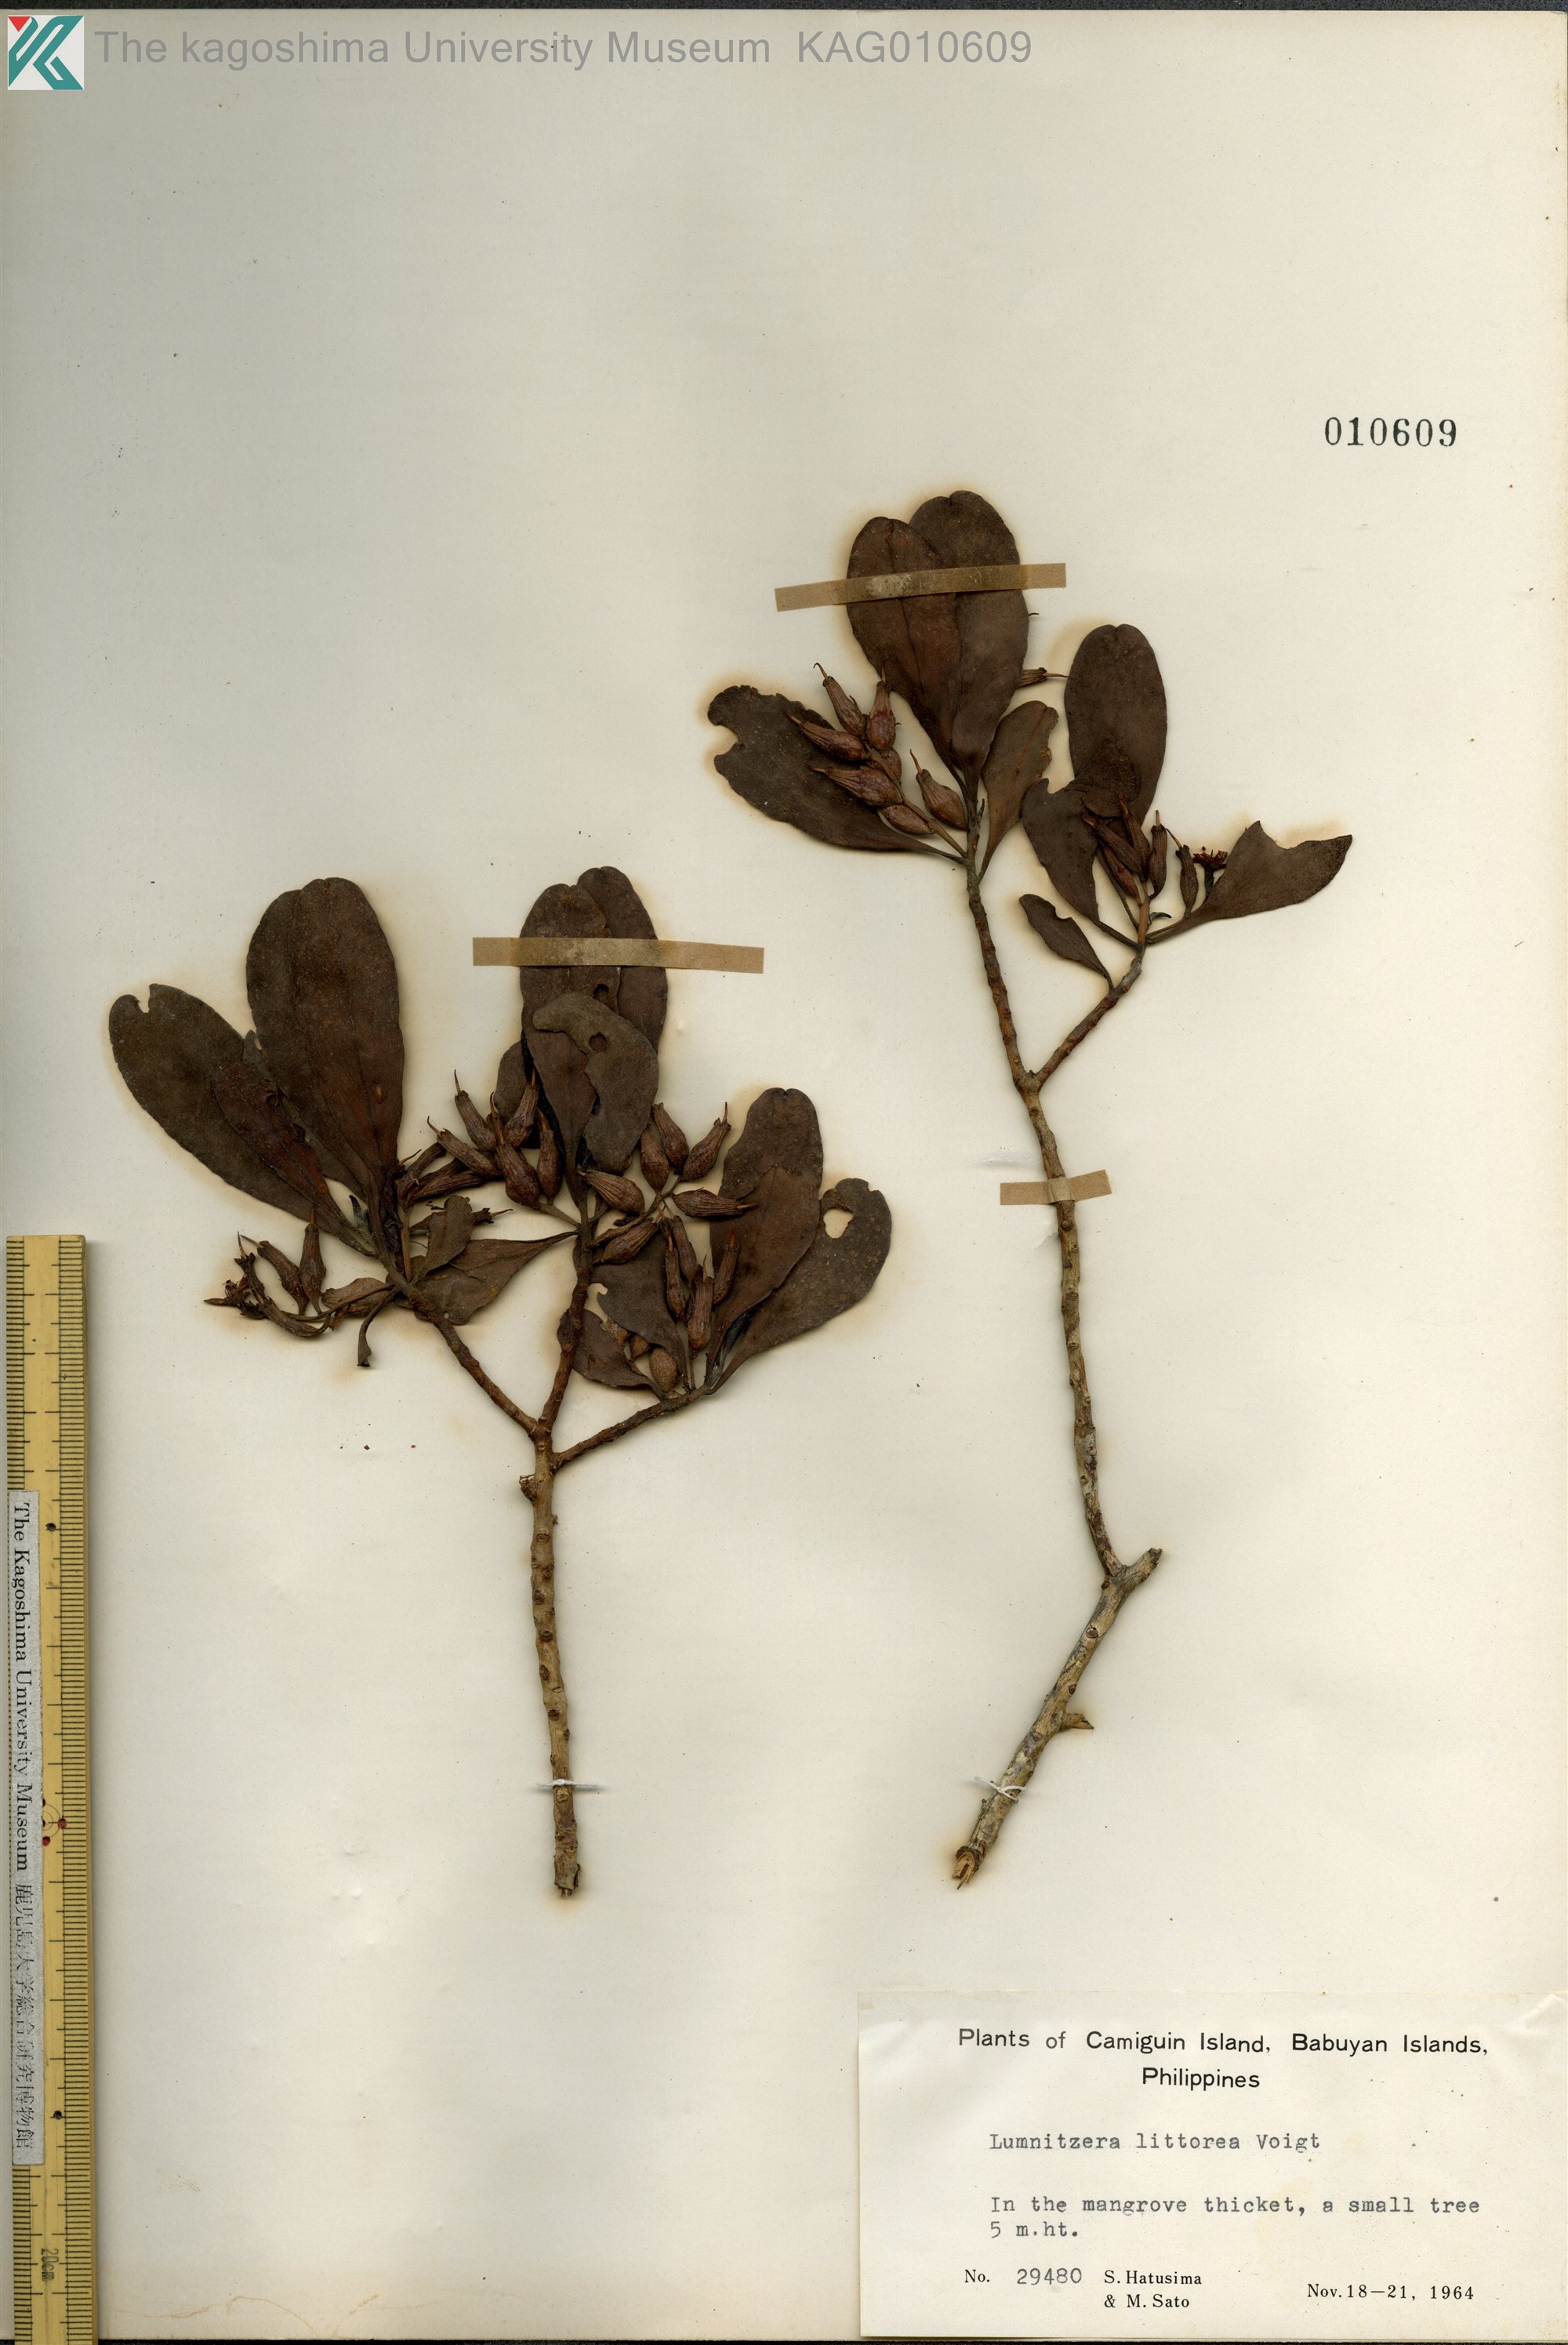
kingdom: Plantae
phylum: Tracheophyta
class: Magnoliopsida
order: Myrtales
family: Combretaceae
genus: Lumnitzera
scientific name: Lumnitzera racemosa
